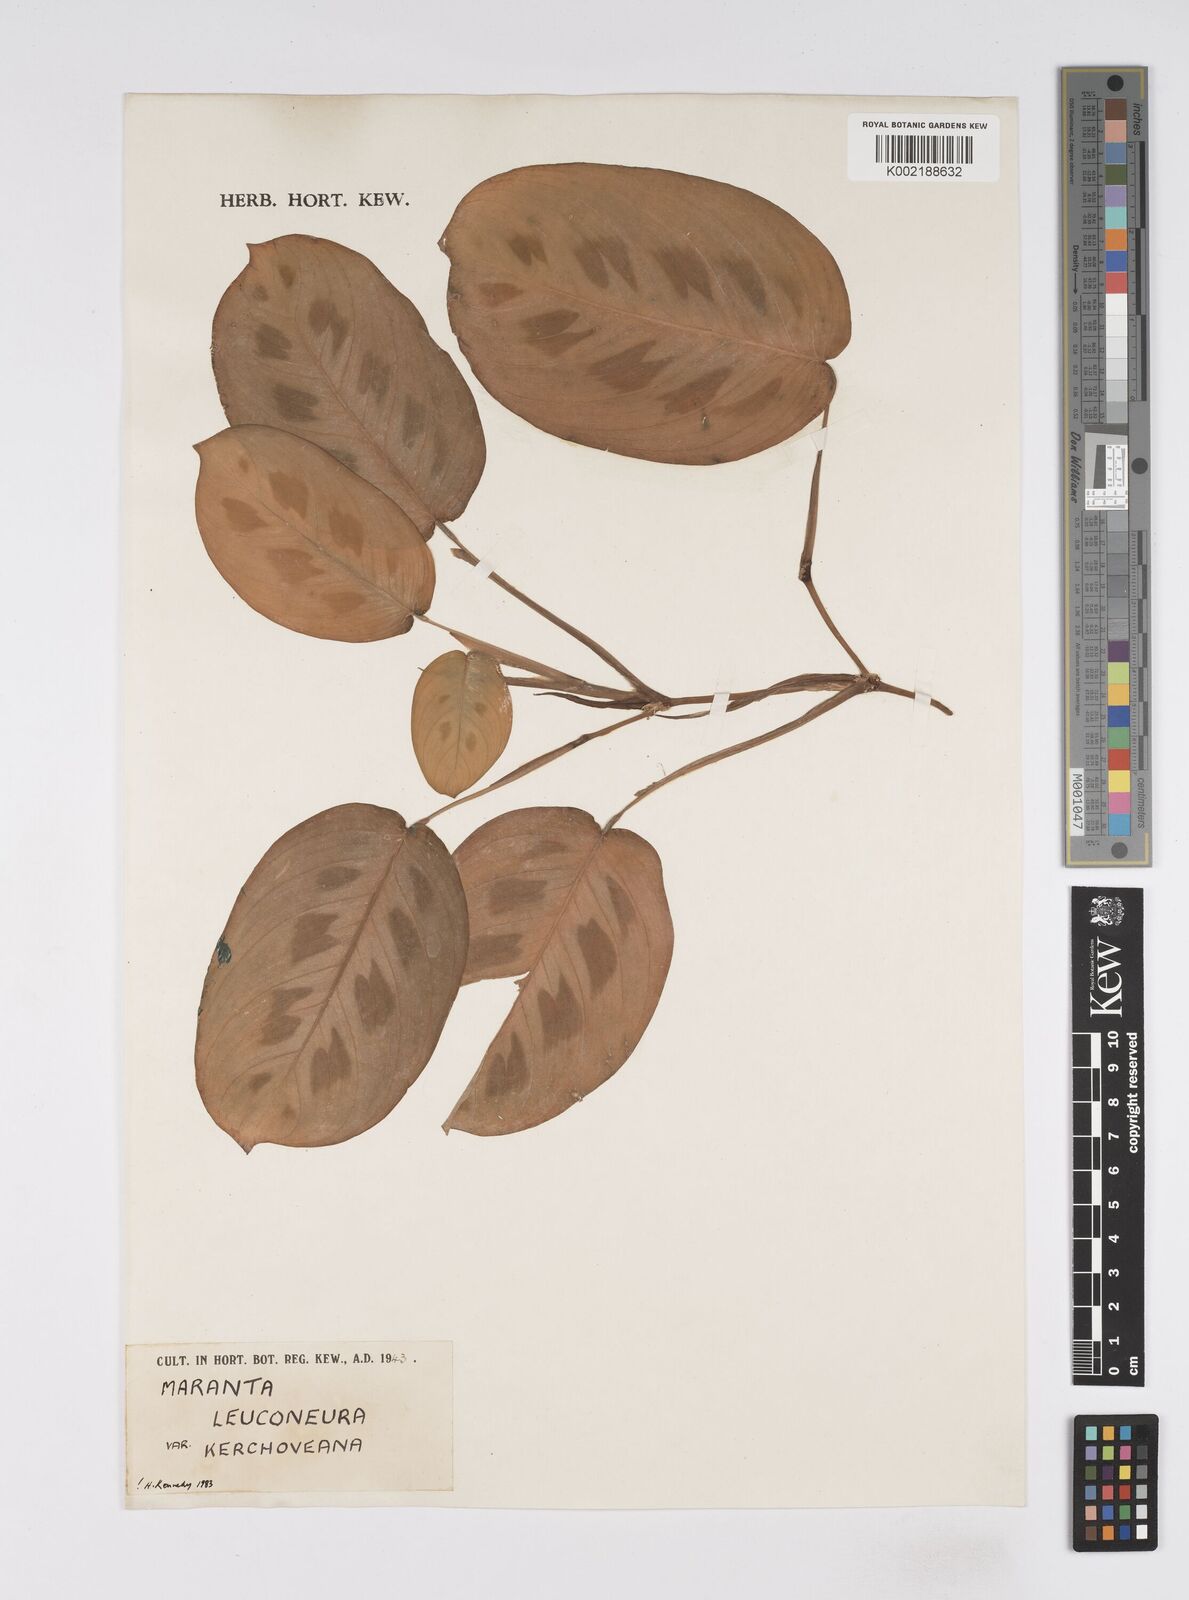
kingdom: Plantae
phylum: Tracheophyta
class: Liliopsida
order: Zingiberales
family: Marantaceae
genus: Maranta
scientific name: Maranta leuconeura
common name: Ten-commandments
